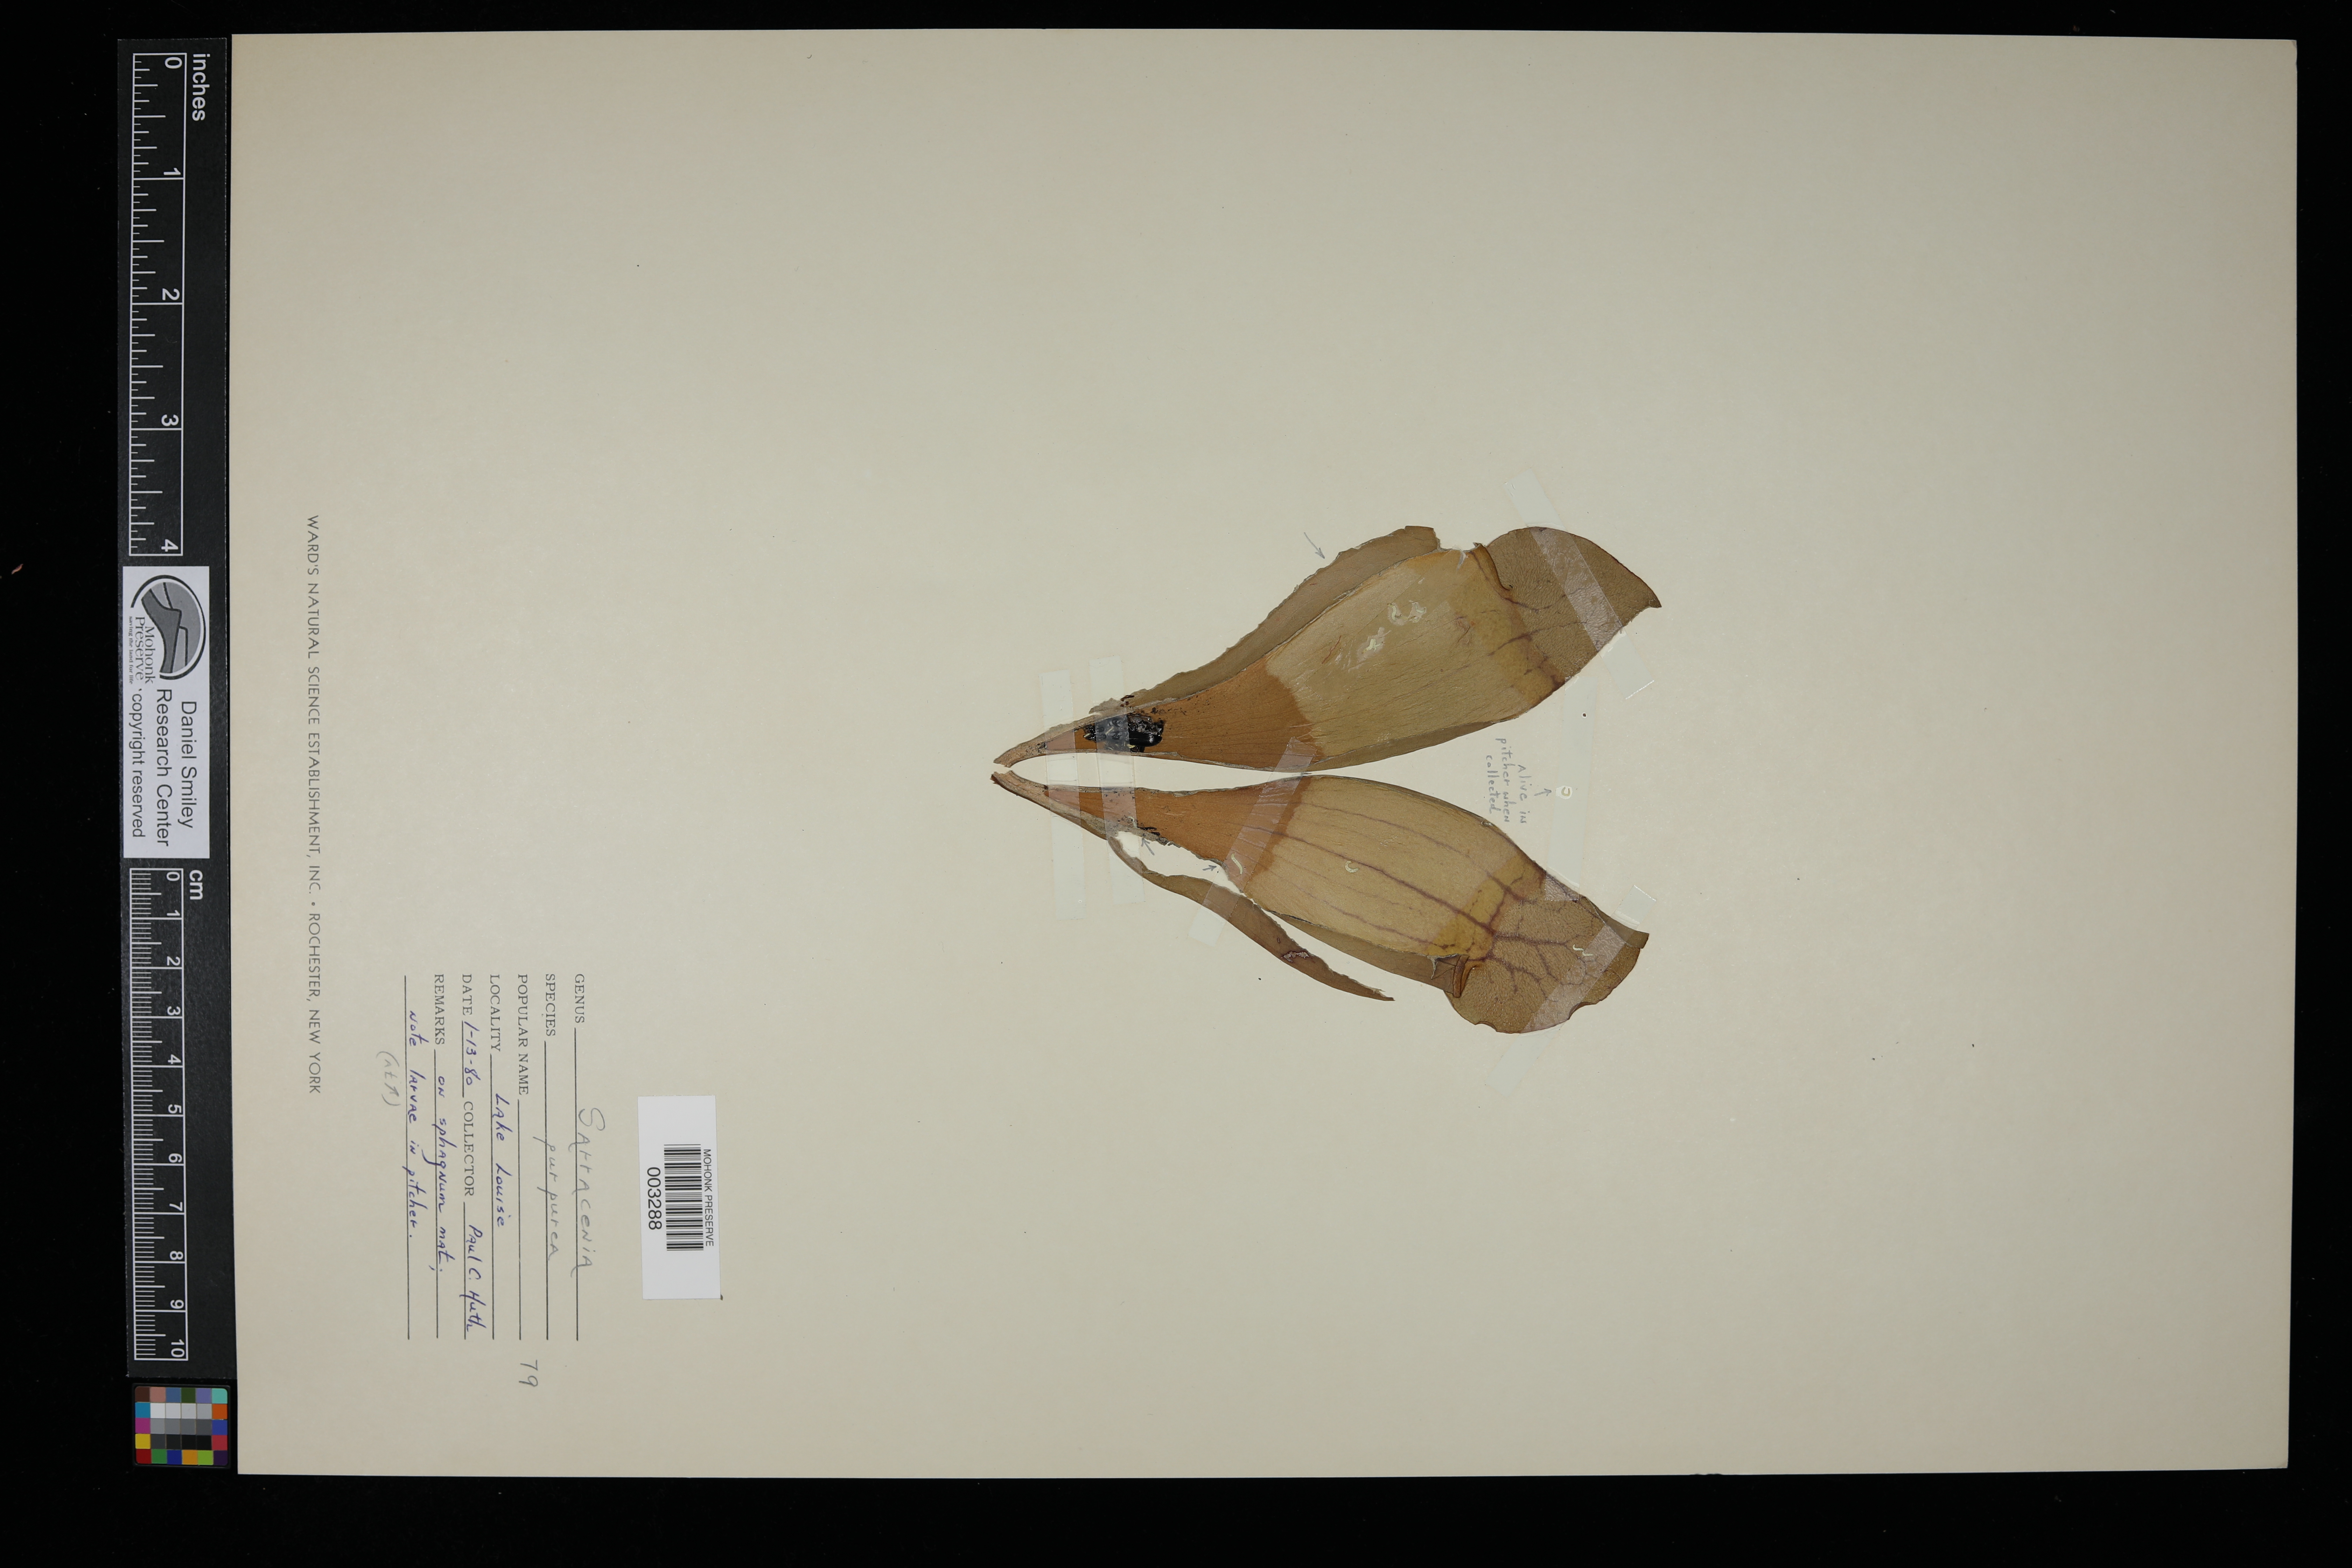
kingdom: Plantae
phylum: Tracheophyta
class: Magnoliopsida
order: Ericales
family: Sarraceniaceae
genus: Sarracenia
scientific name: Sarracenia purpurea
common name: Pitcherplant
